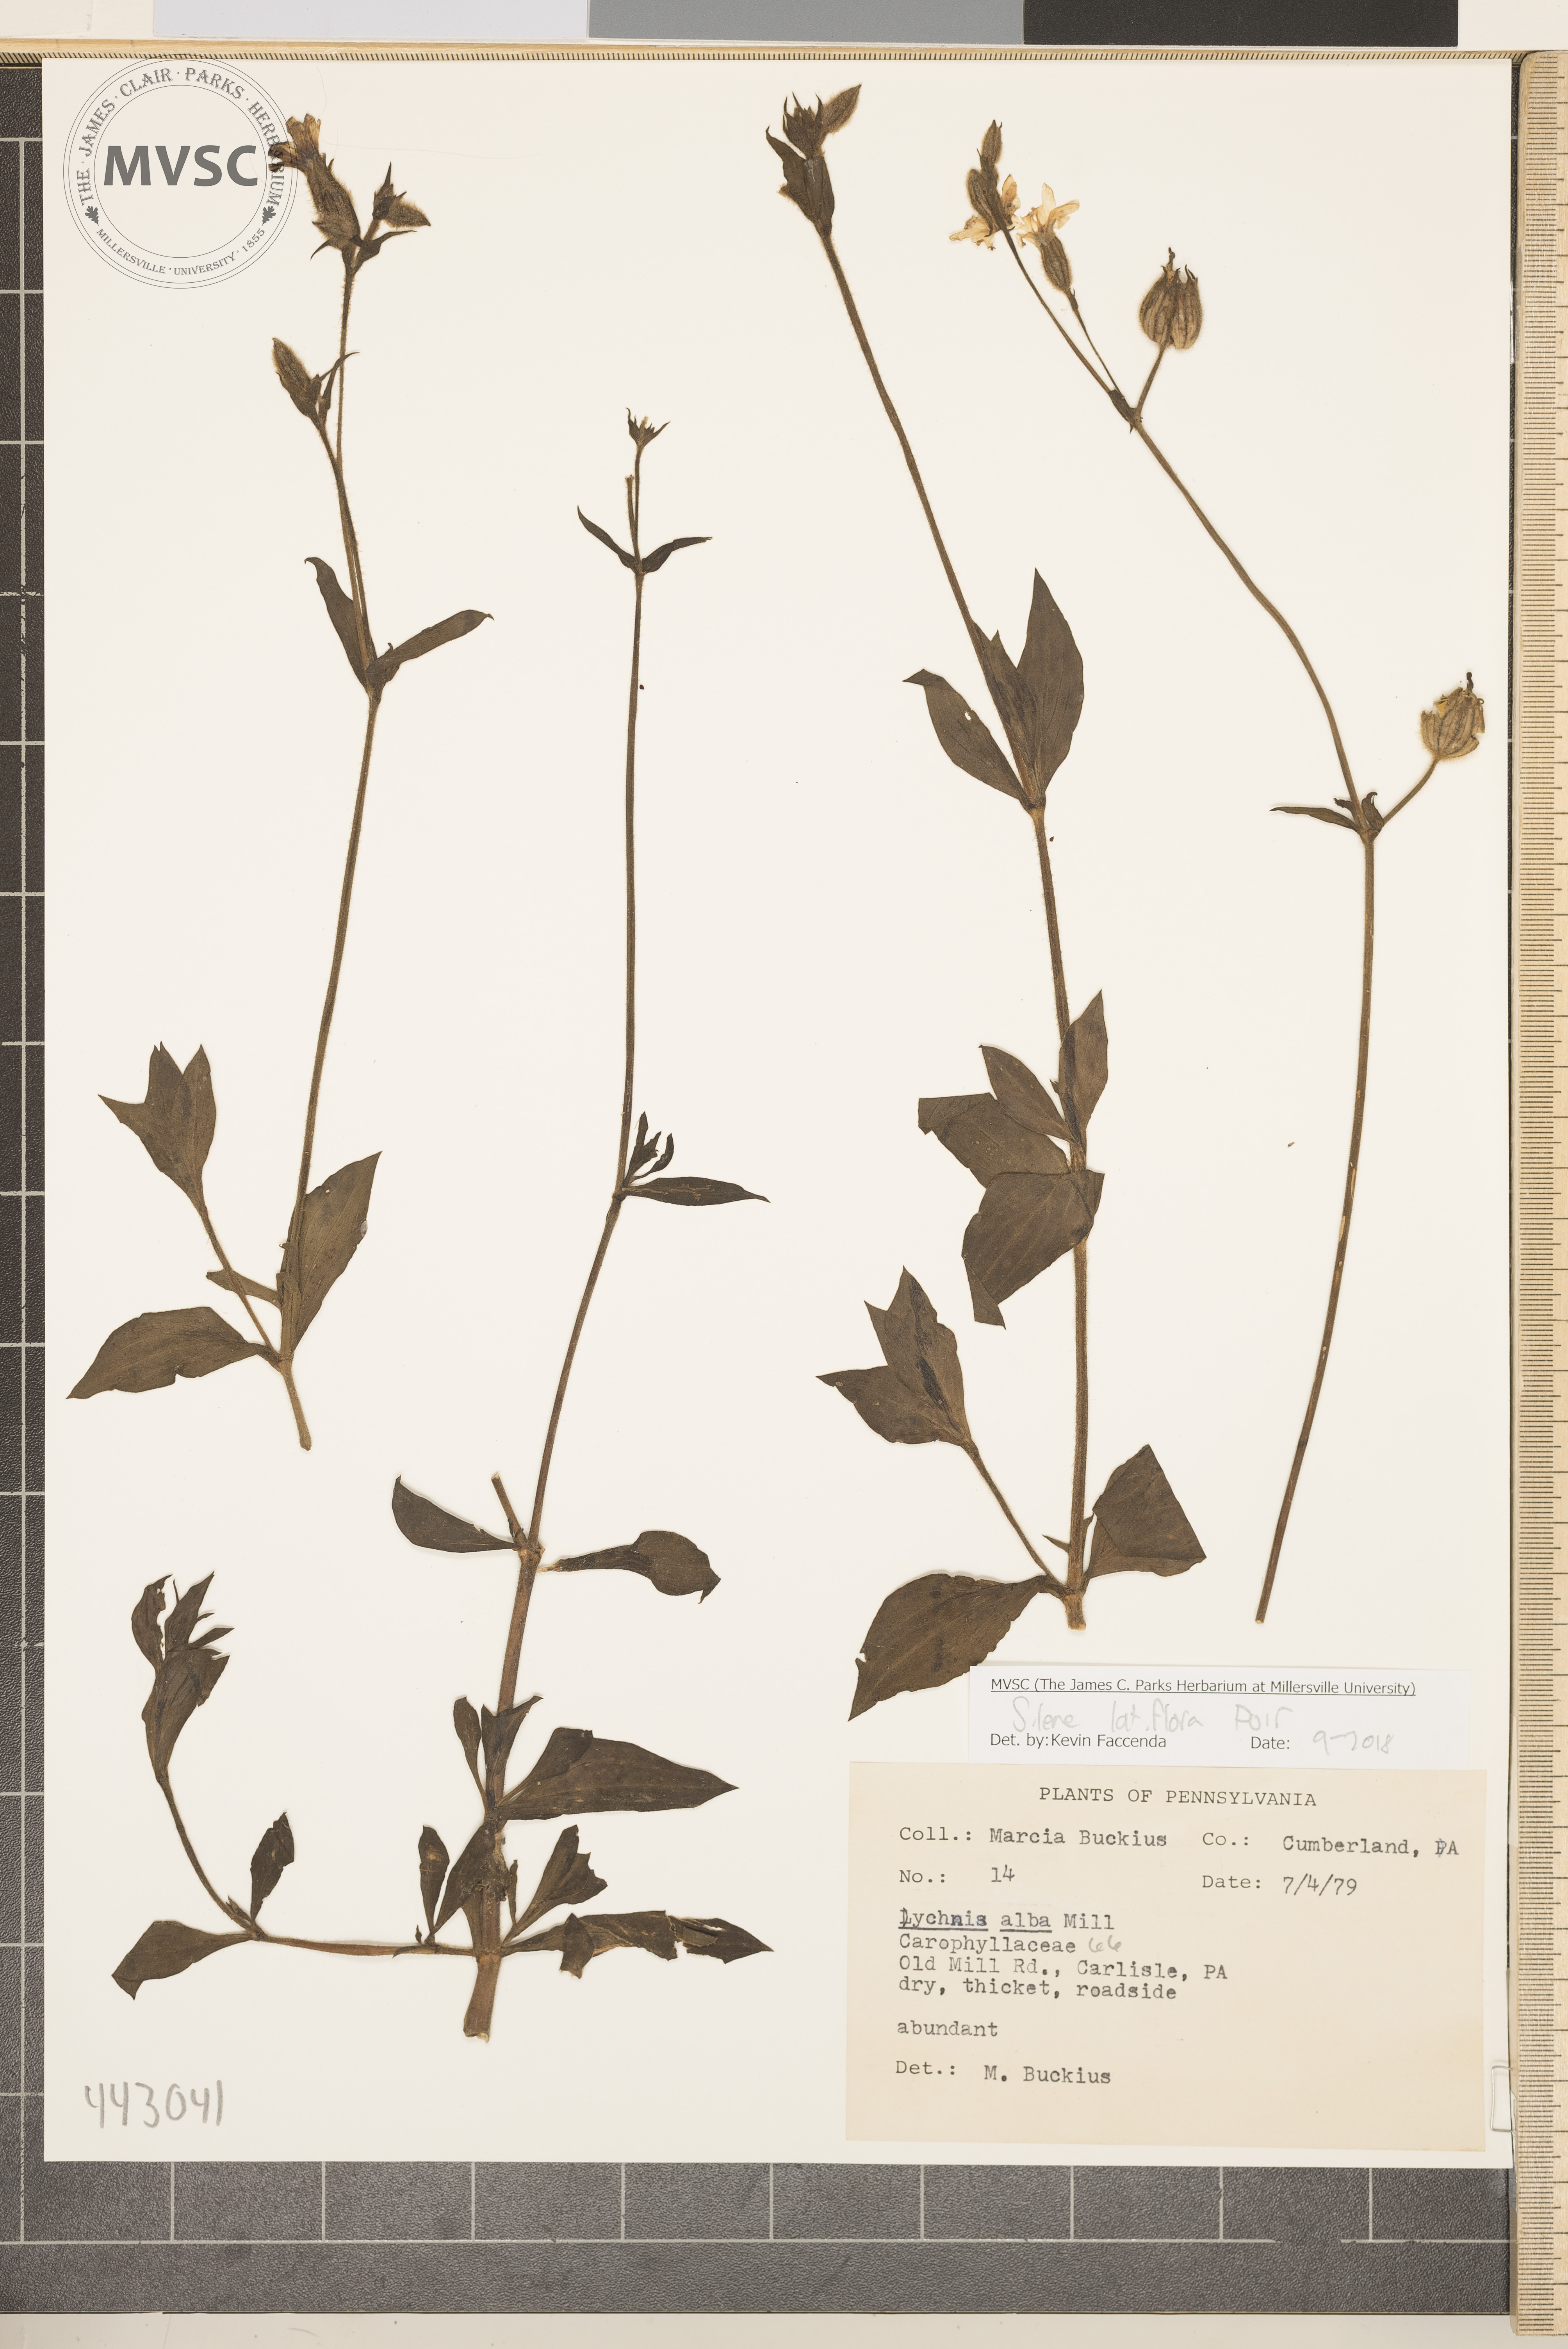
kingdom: Plantae
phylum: Tracheophyta
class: Magnoliopsida
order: Caryophyllales
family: Caryophyllaceae
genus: Silene
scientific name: Silene latifolia
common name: White campion
